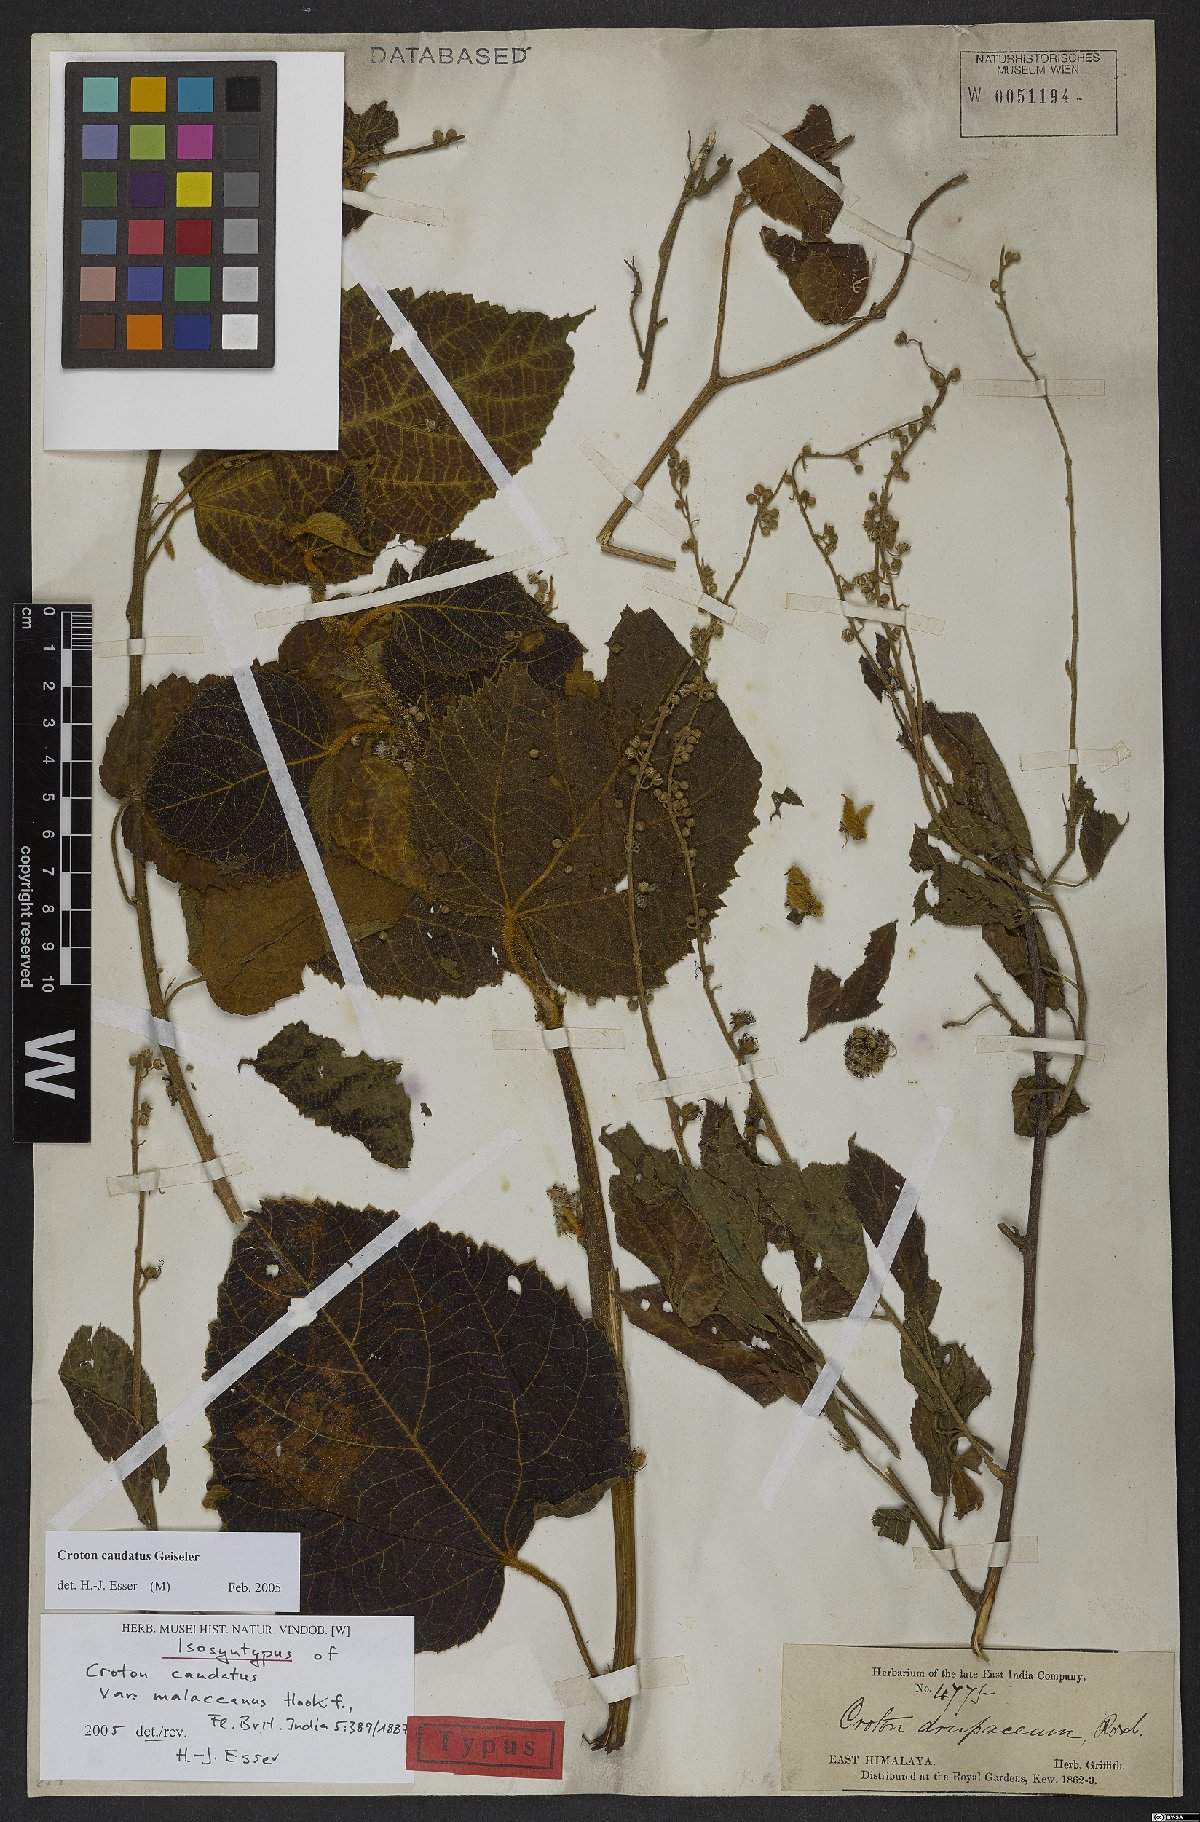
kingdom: Plantae
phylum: Tracheophyta
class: Magnoliopsida
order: Malpighiales
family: Euphorbiaceae
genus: Croton
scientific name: Croton caudatus
